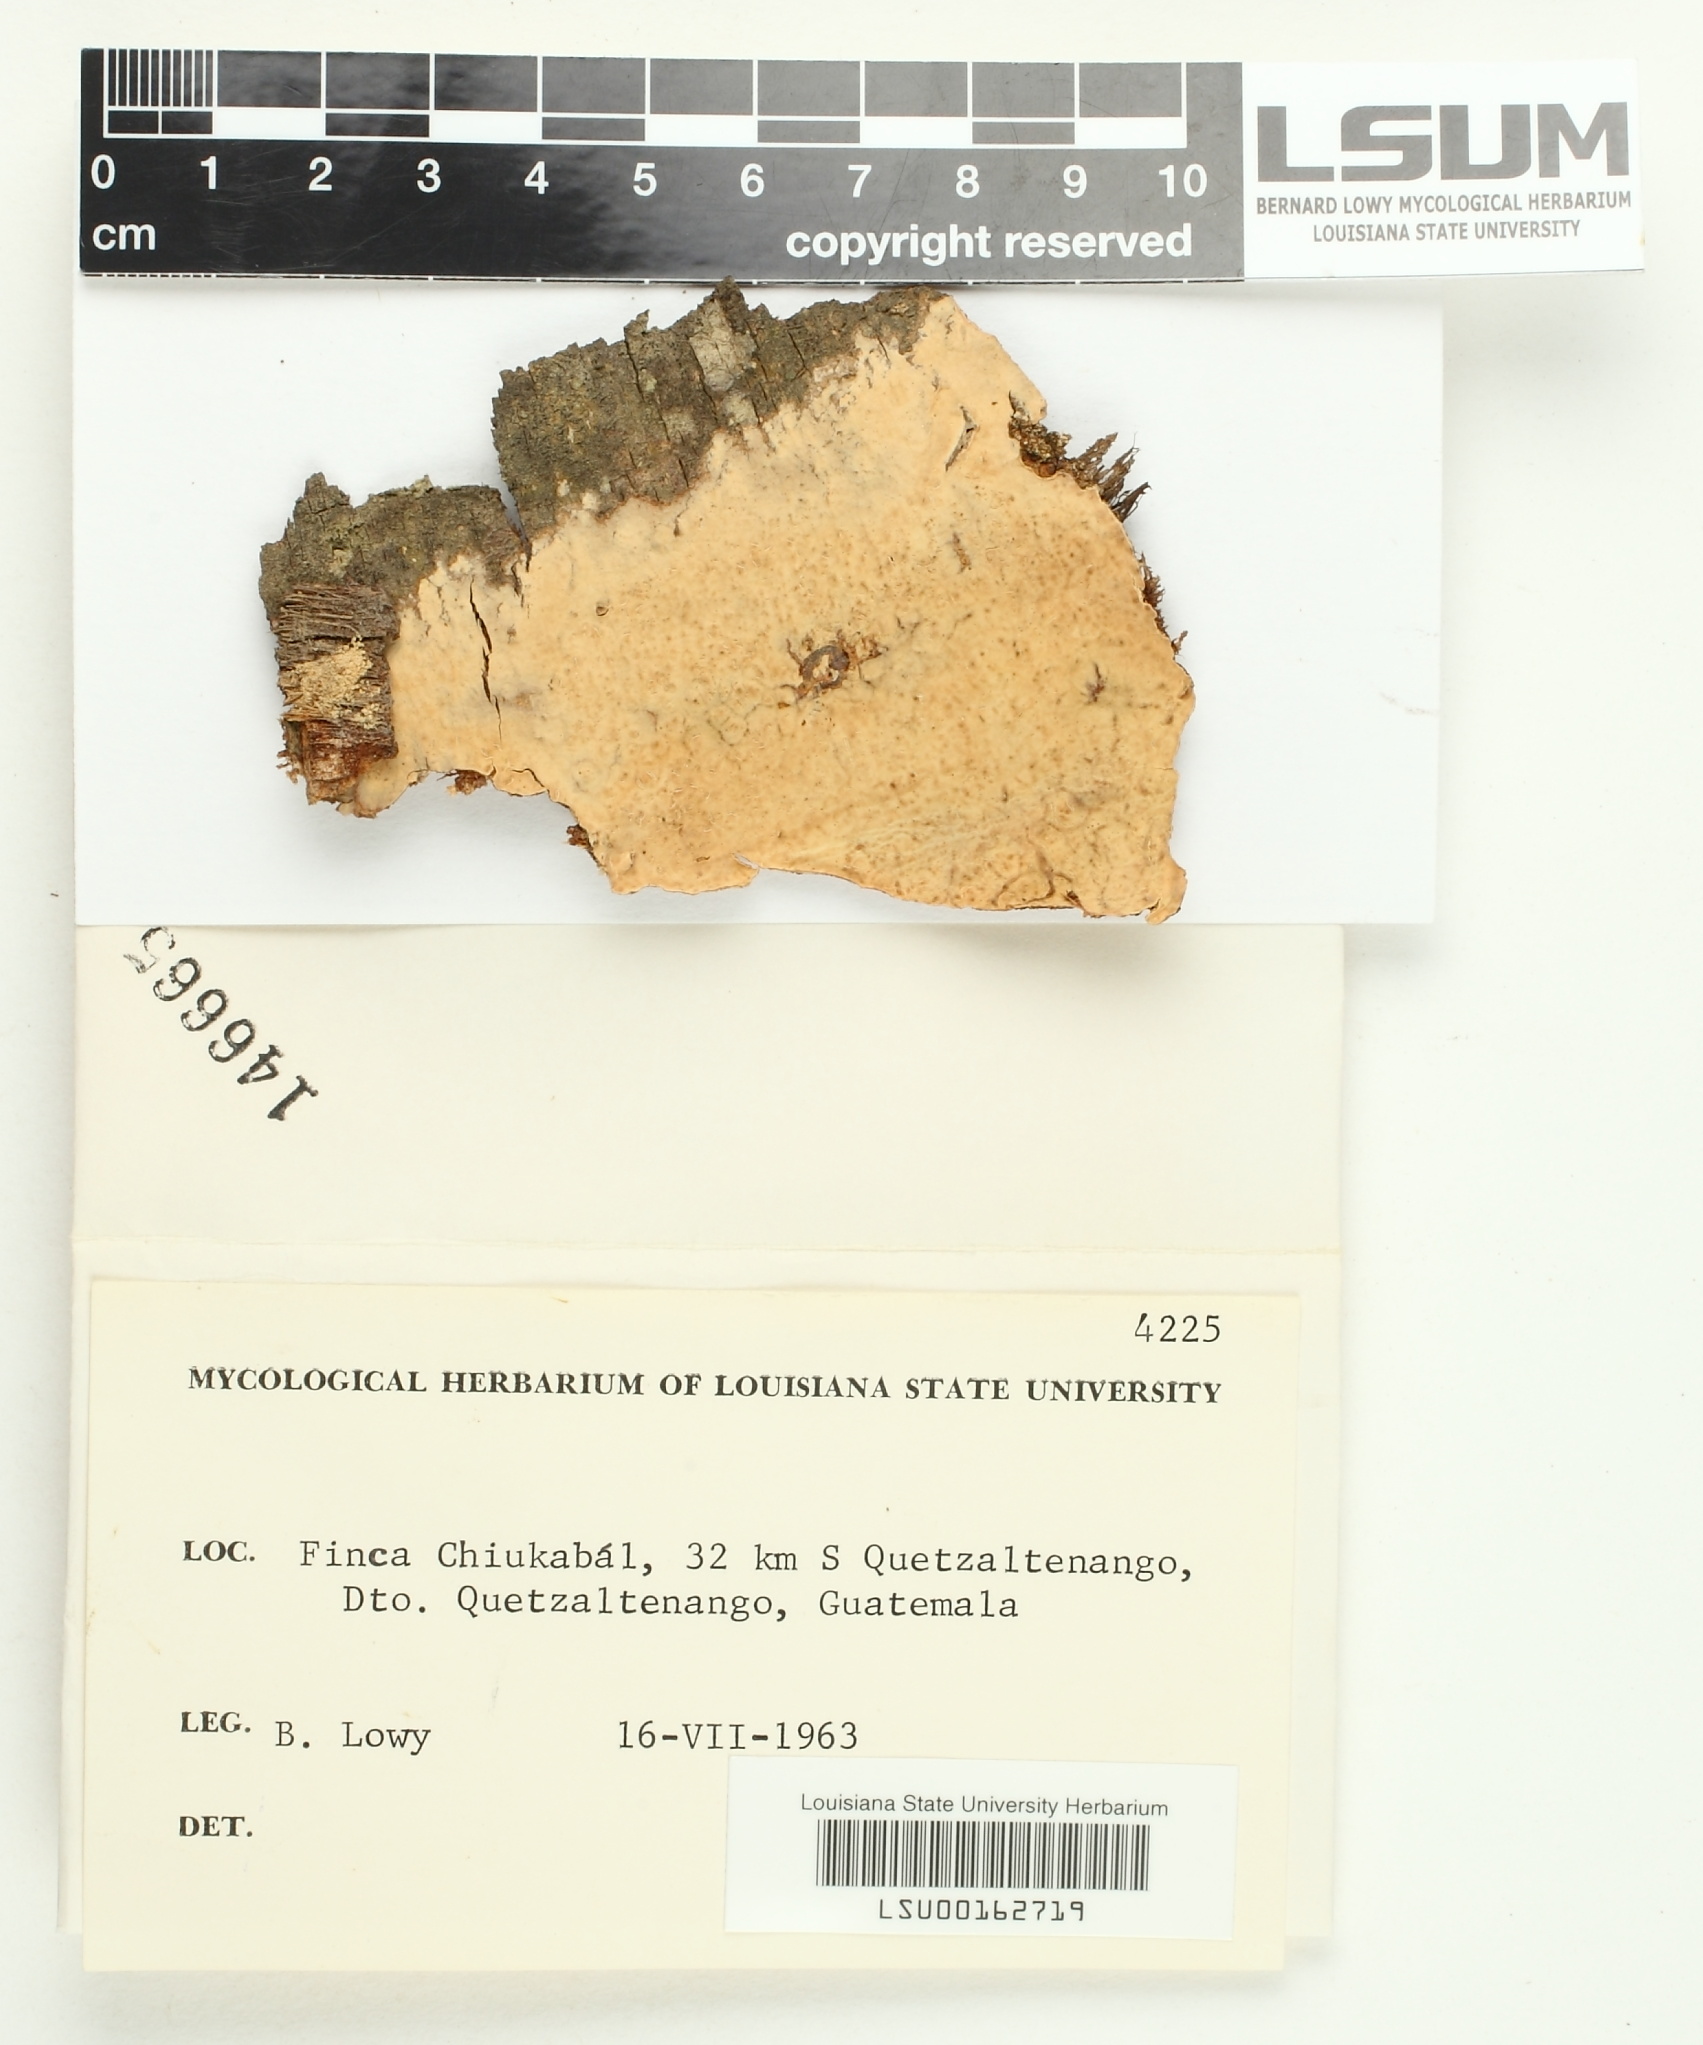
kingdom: Fungi
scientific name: Fungi
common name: Fungi
